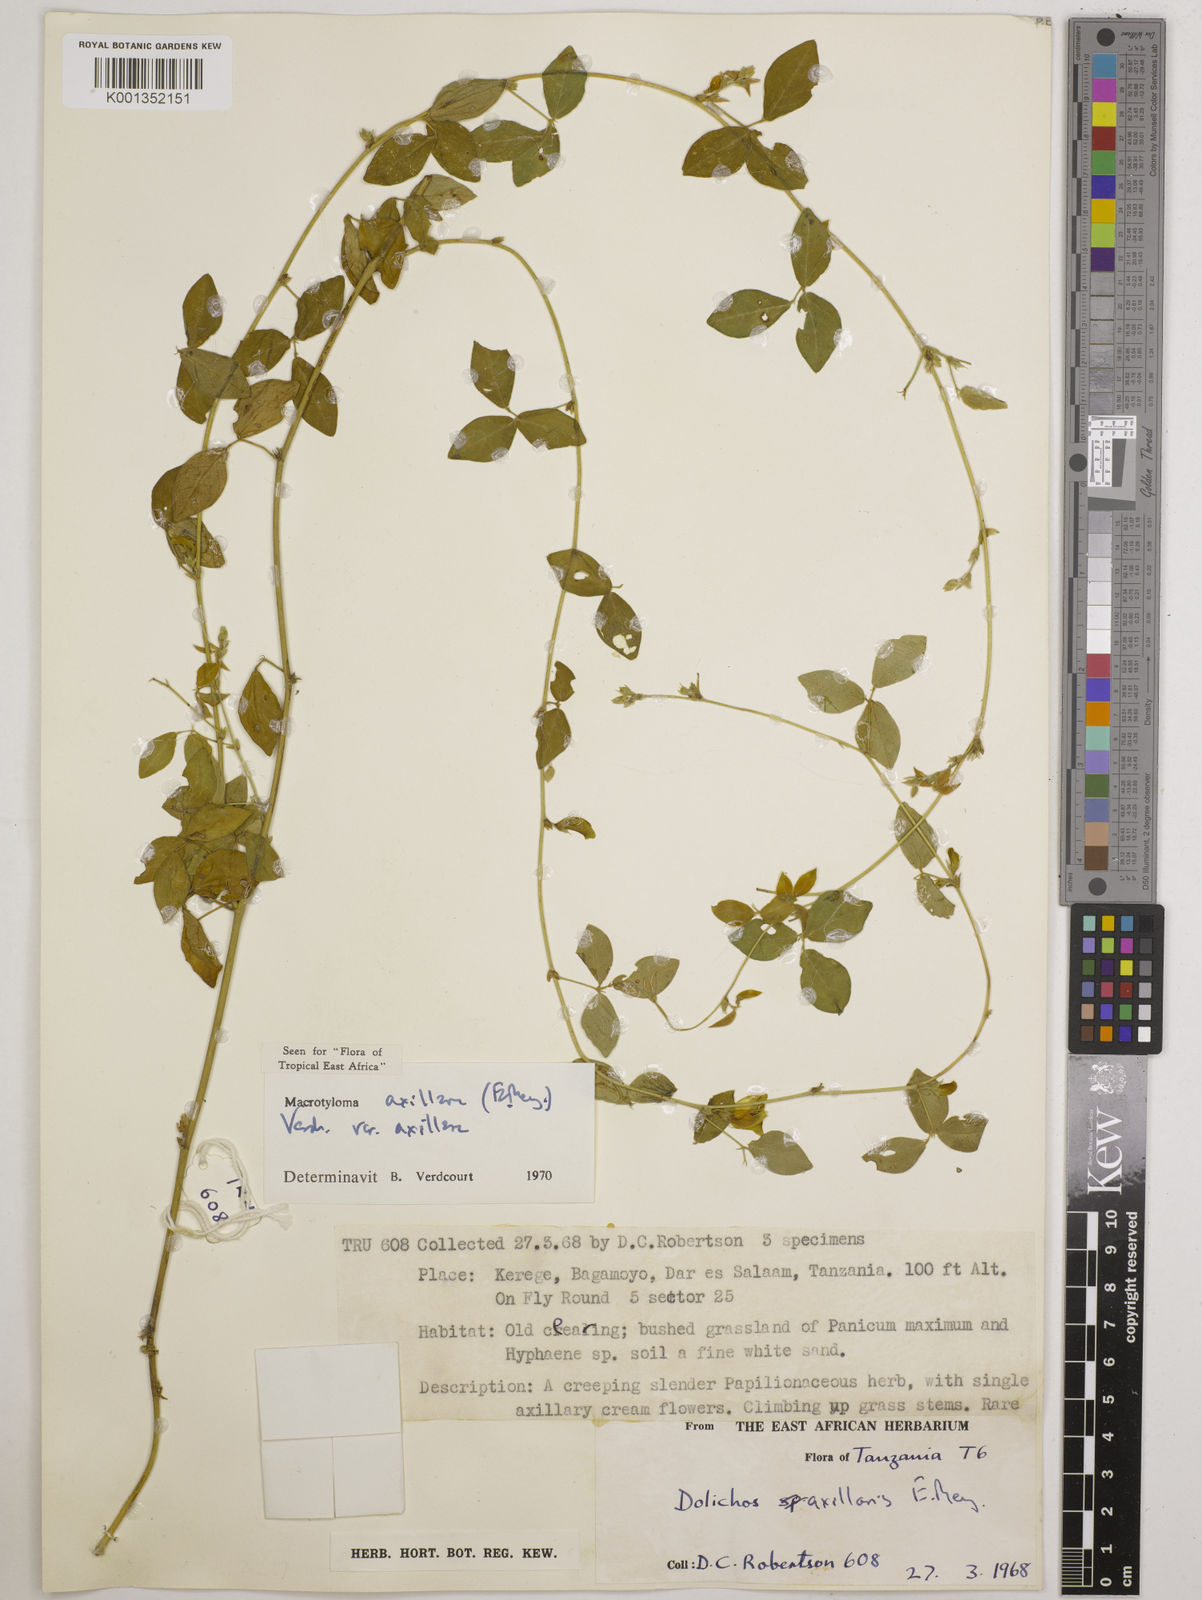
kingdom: Plantae
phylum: Tracheophyta
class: Magnoliopsida
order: Fabales
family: Fabaceae
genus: Macrotyloma
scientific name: Macrotyloma axillare
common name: Perennial horsegram
